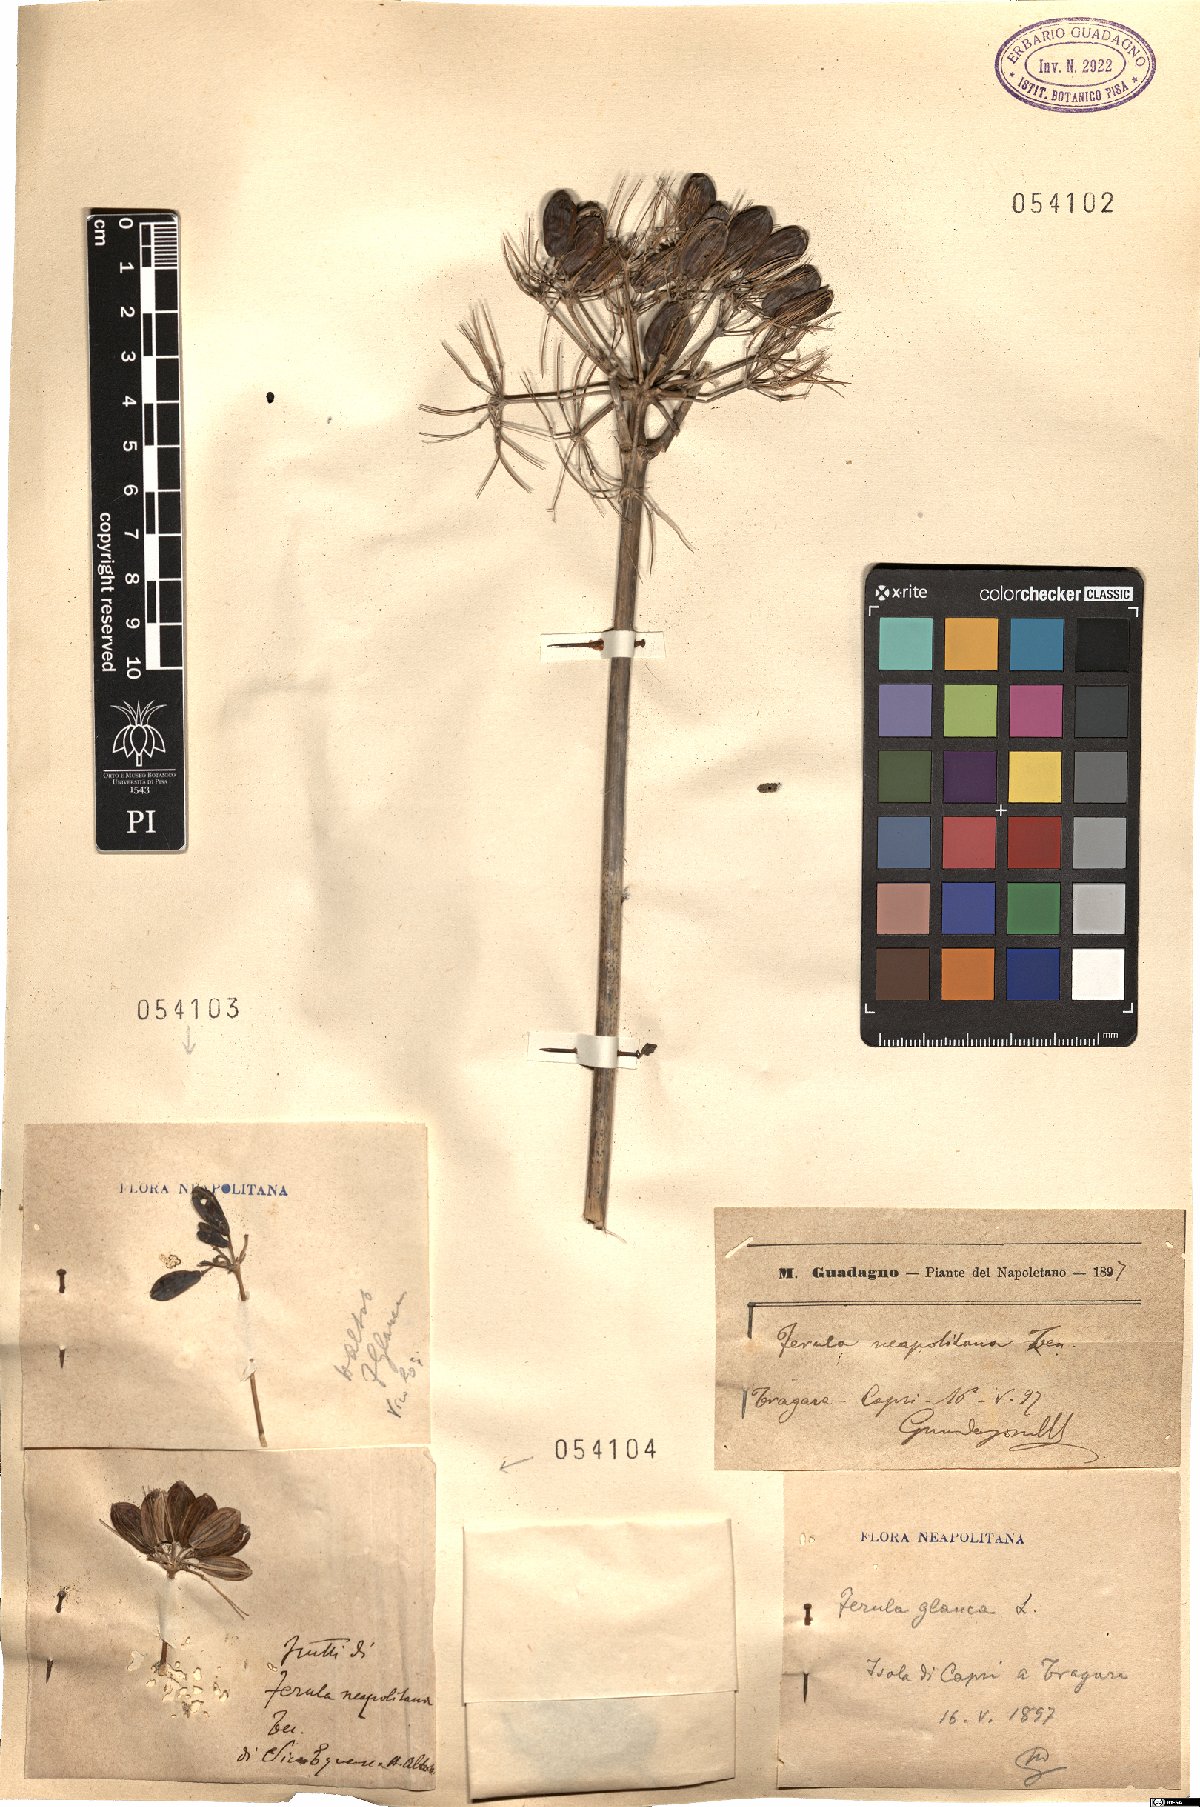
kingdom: Plantae
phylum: Tracheophyta
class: Magnoliopsida
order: Apiales
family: Apiaceae
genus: Ferula
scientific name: Ferula glauca
